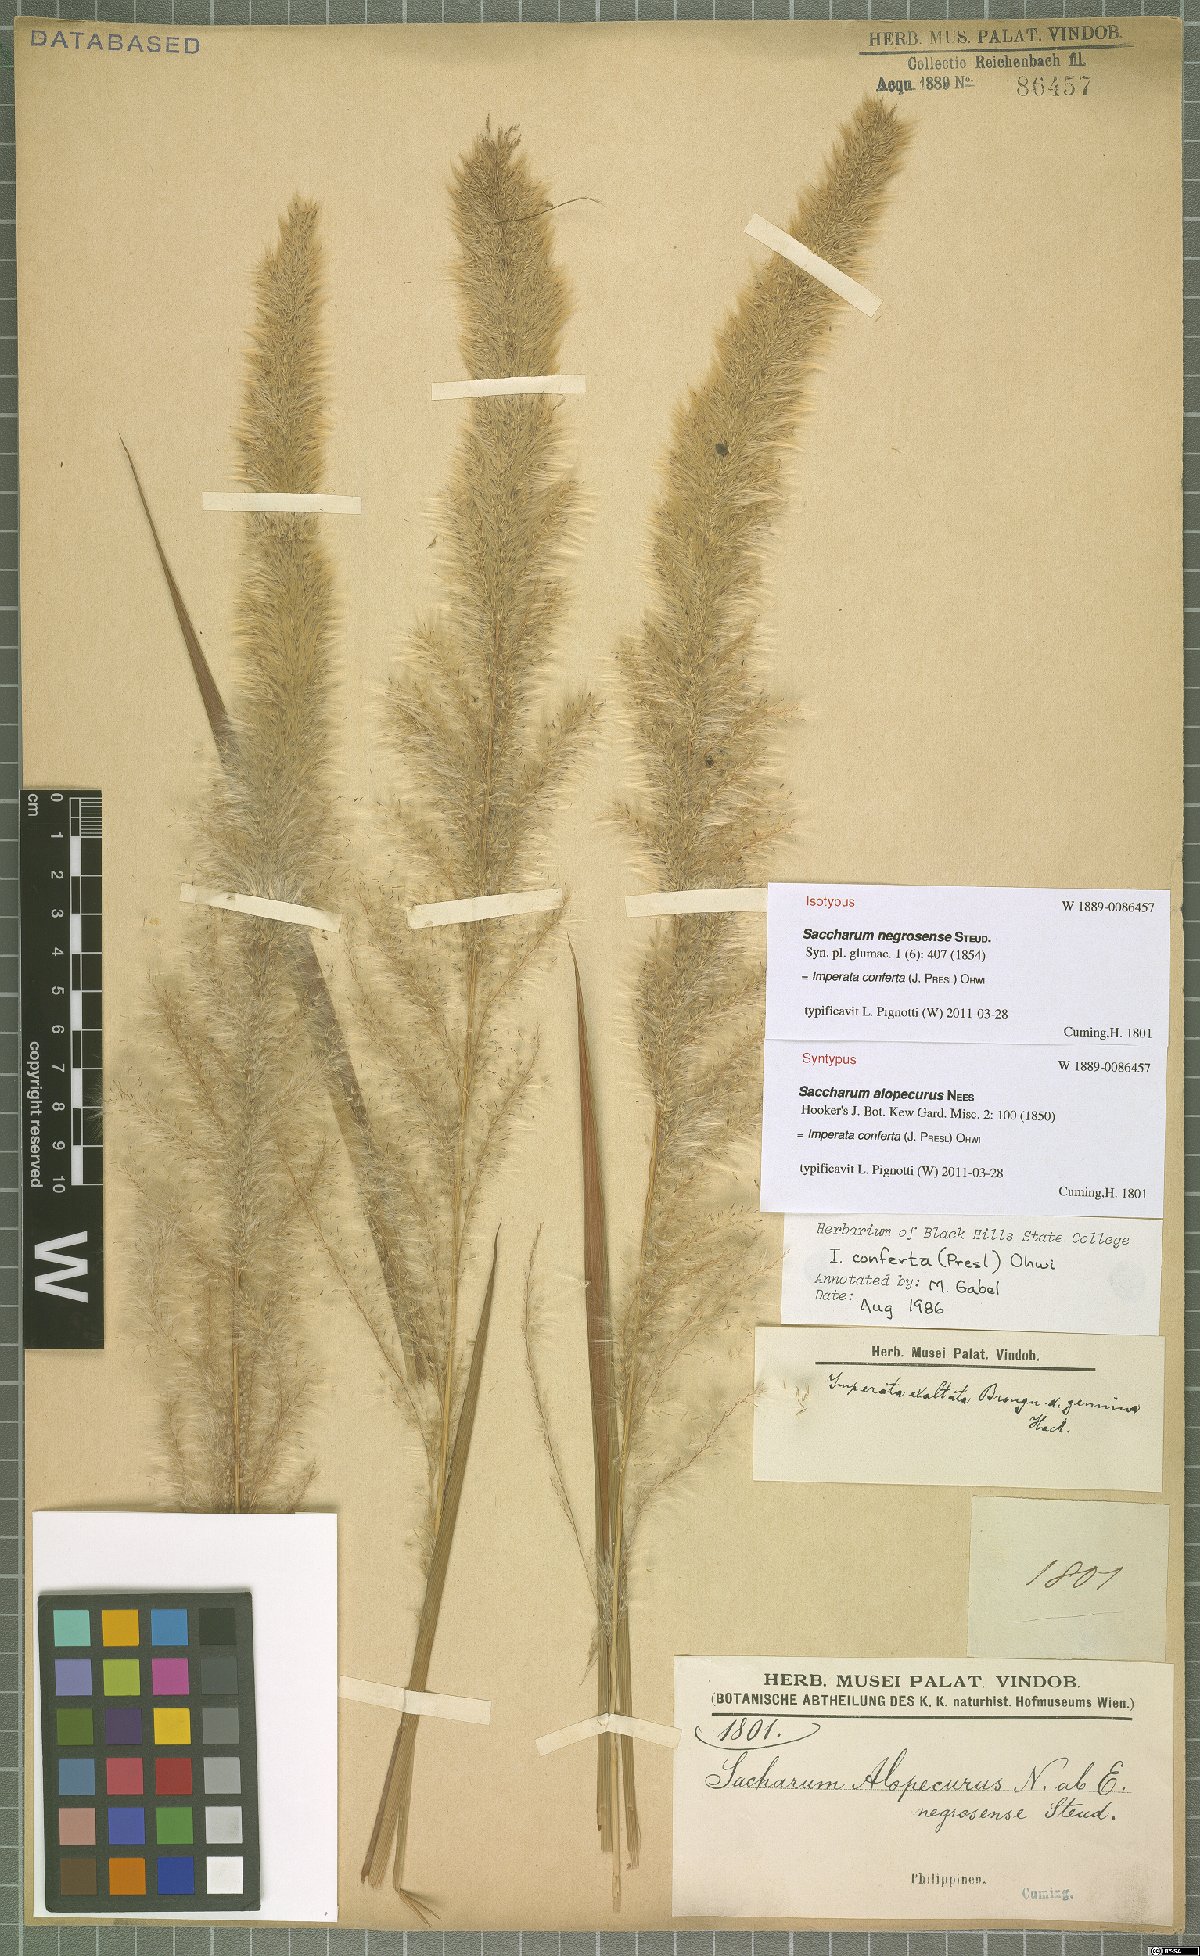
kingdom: Plantae
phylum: Tracheophyta
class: Liliopsida
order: Poales
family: Poaceae
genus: Imperata
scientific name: Imperata conferta
